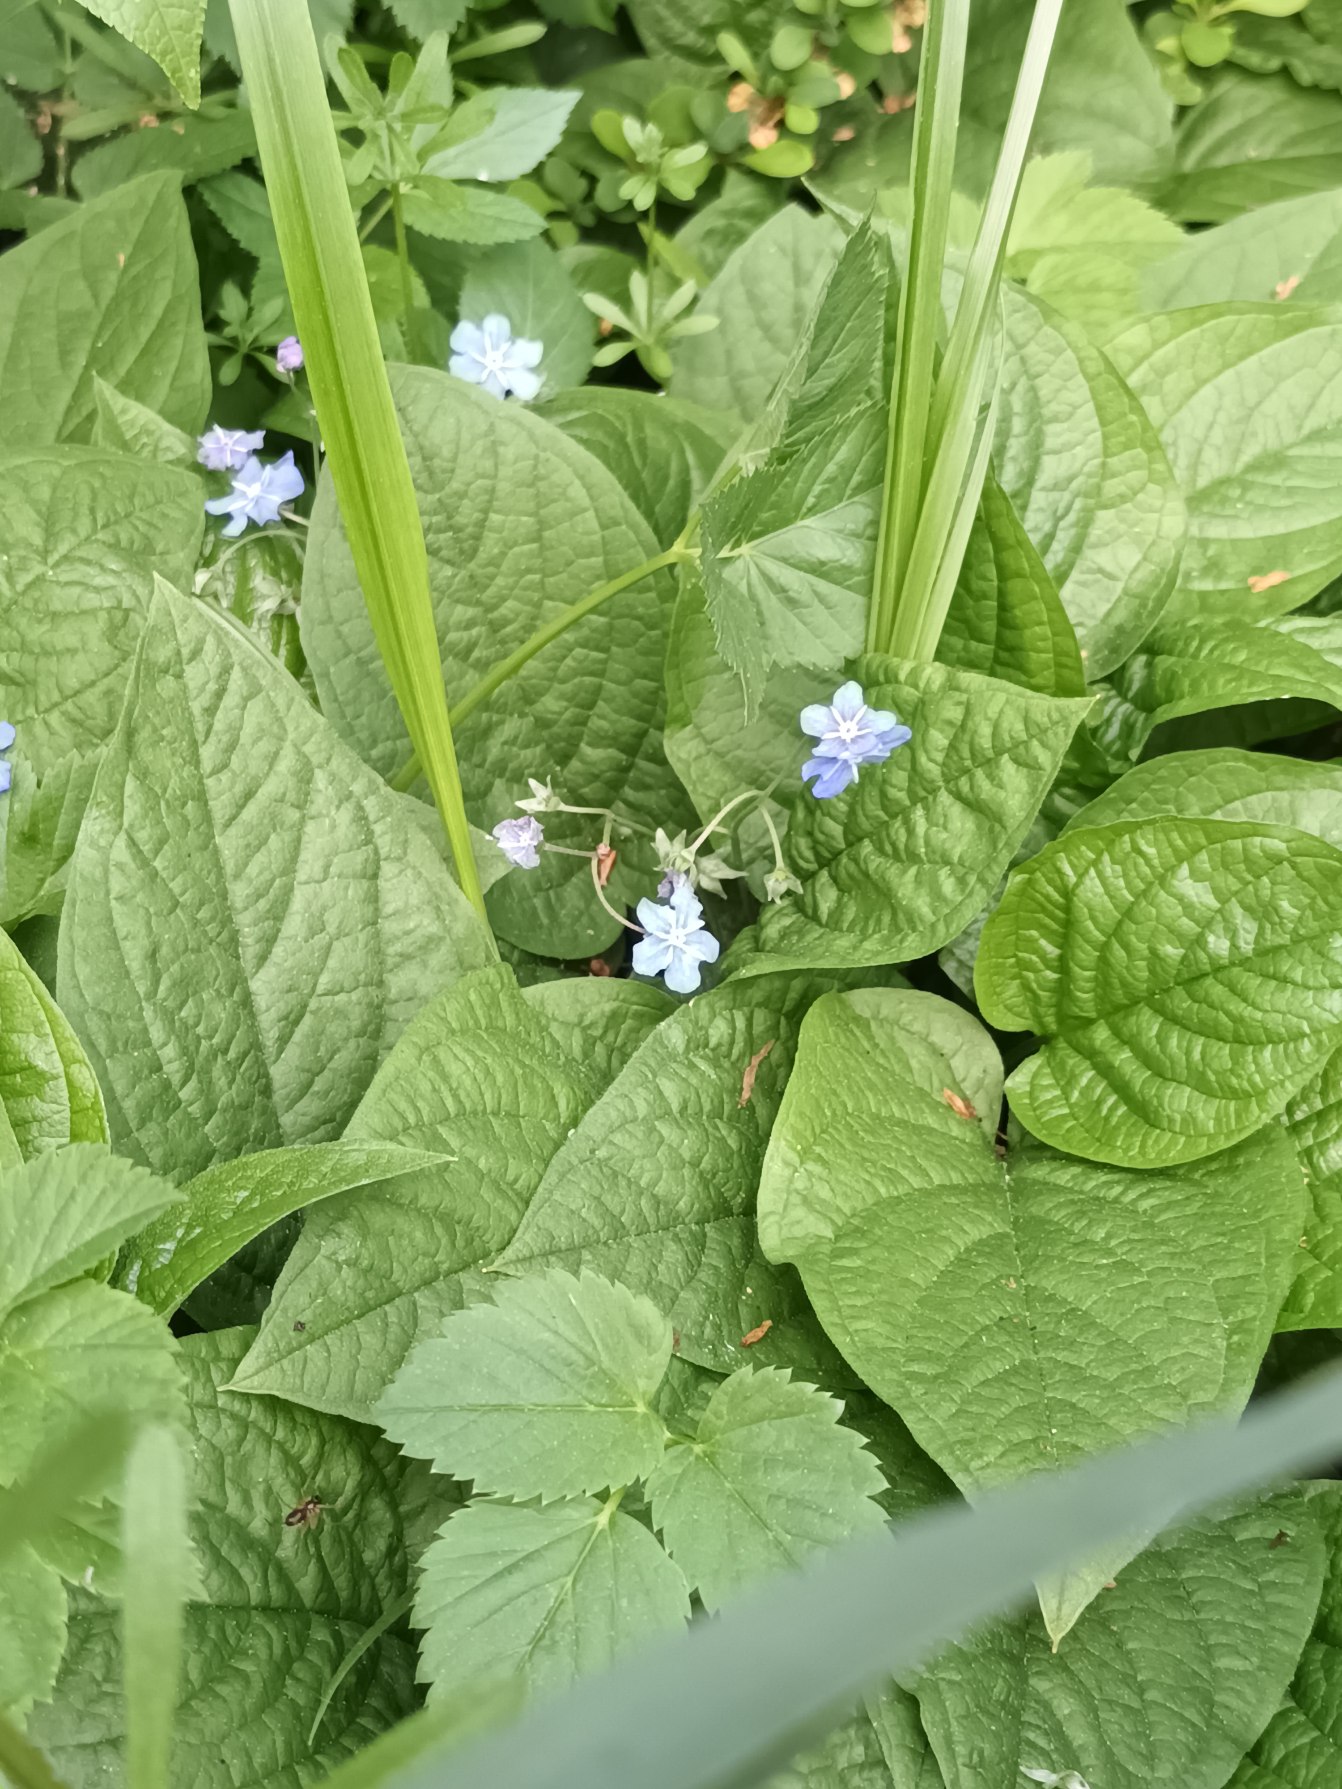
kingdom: Plantae
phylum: Tracheophyta
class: Magnoliopsida
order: Boraginales
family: Boraginaceae
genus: Omphalodes
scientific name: Omphalodes verna
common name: Vår-kærminde
